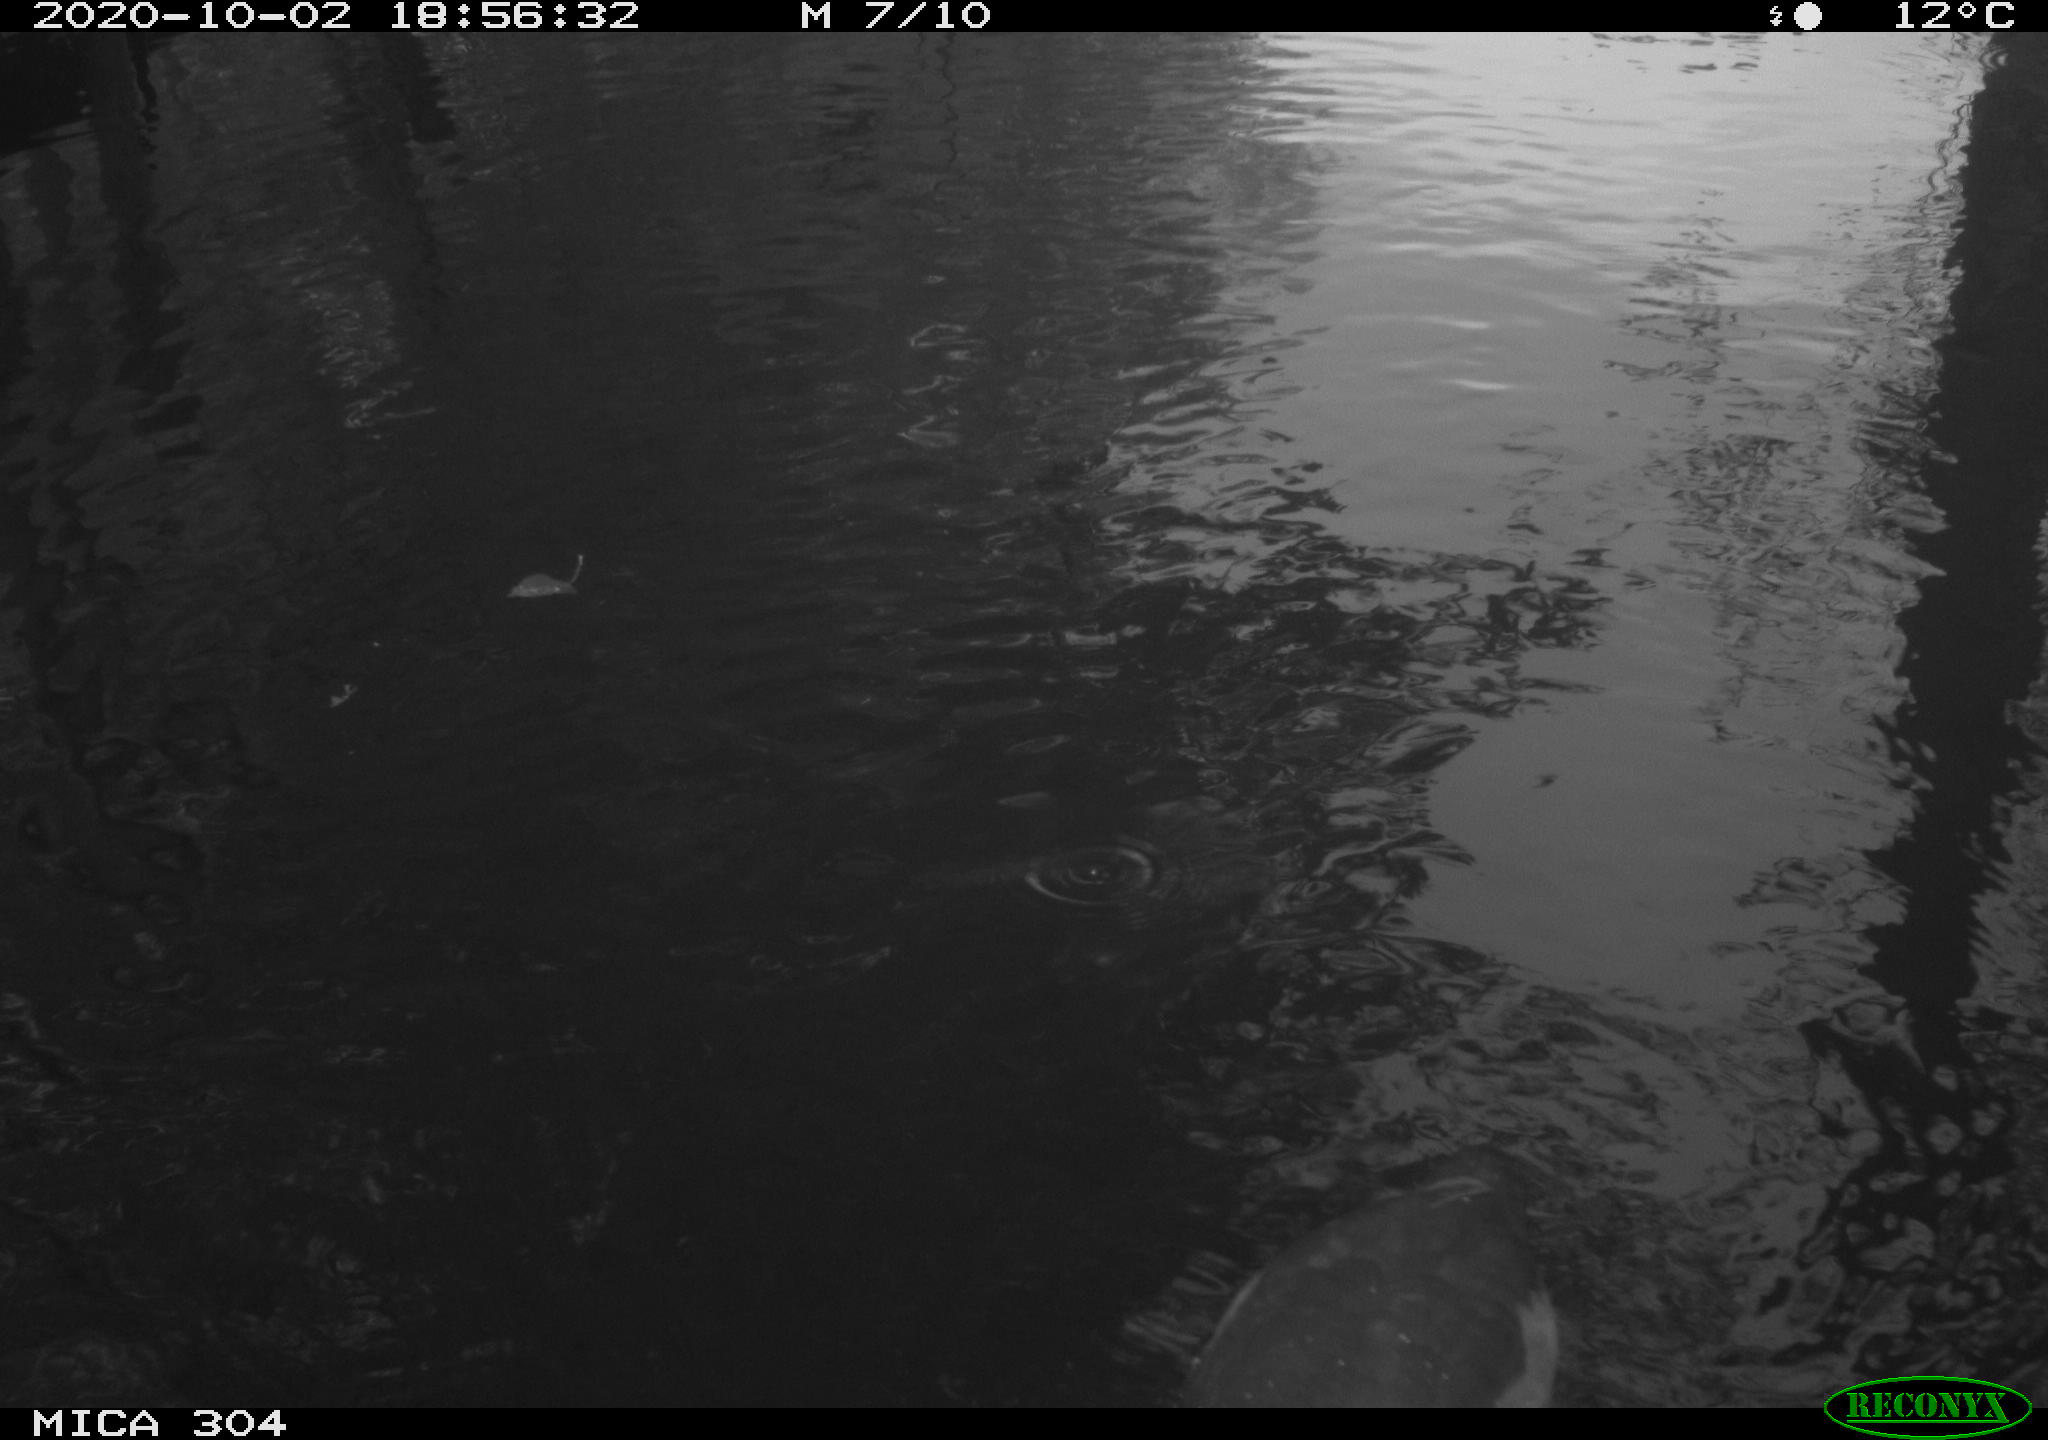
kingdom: Animalia
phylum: Chordata
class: Aves
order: Gruiformes
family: Rallidae
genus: Fulica
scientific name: Fulica atra
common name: Eurasian coot
